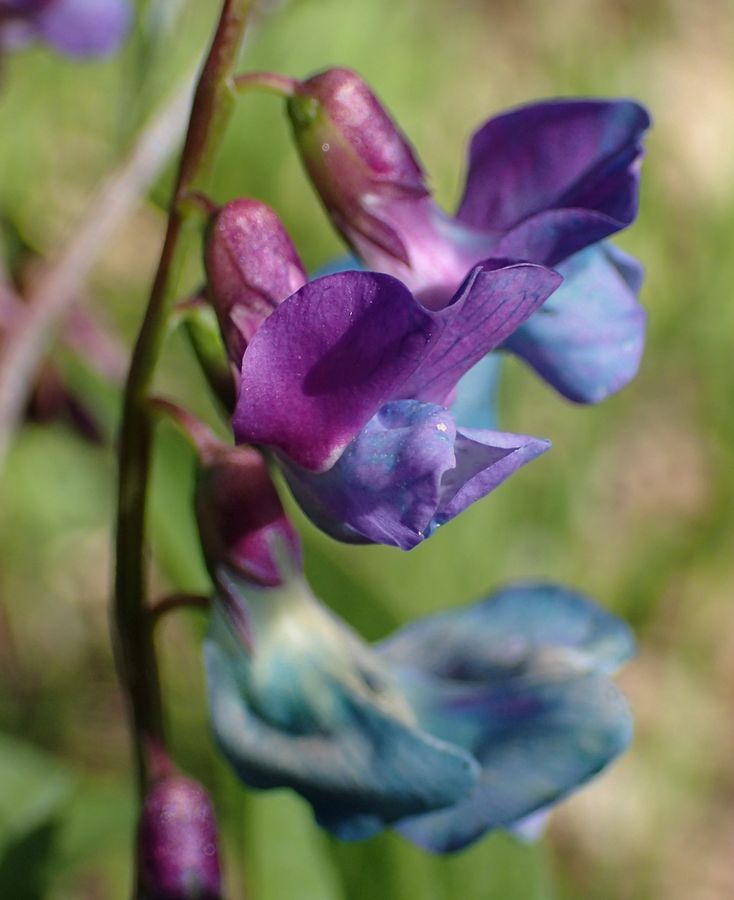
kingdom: Plantae
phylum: Tracheophyta
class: Magnoliopsida
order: Fabales
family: Fabaceae
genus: Lathyrus
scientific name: Lathyrus vernus
